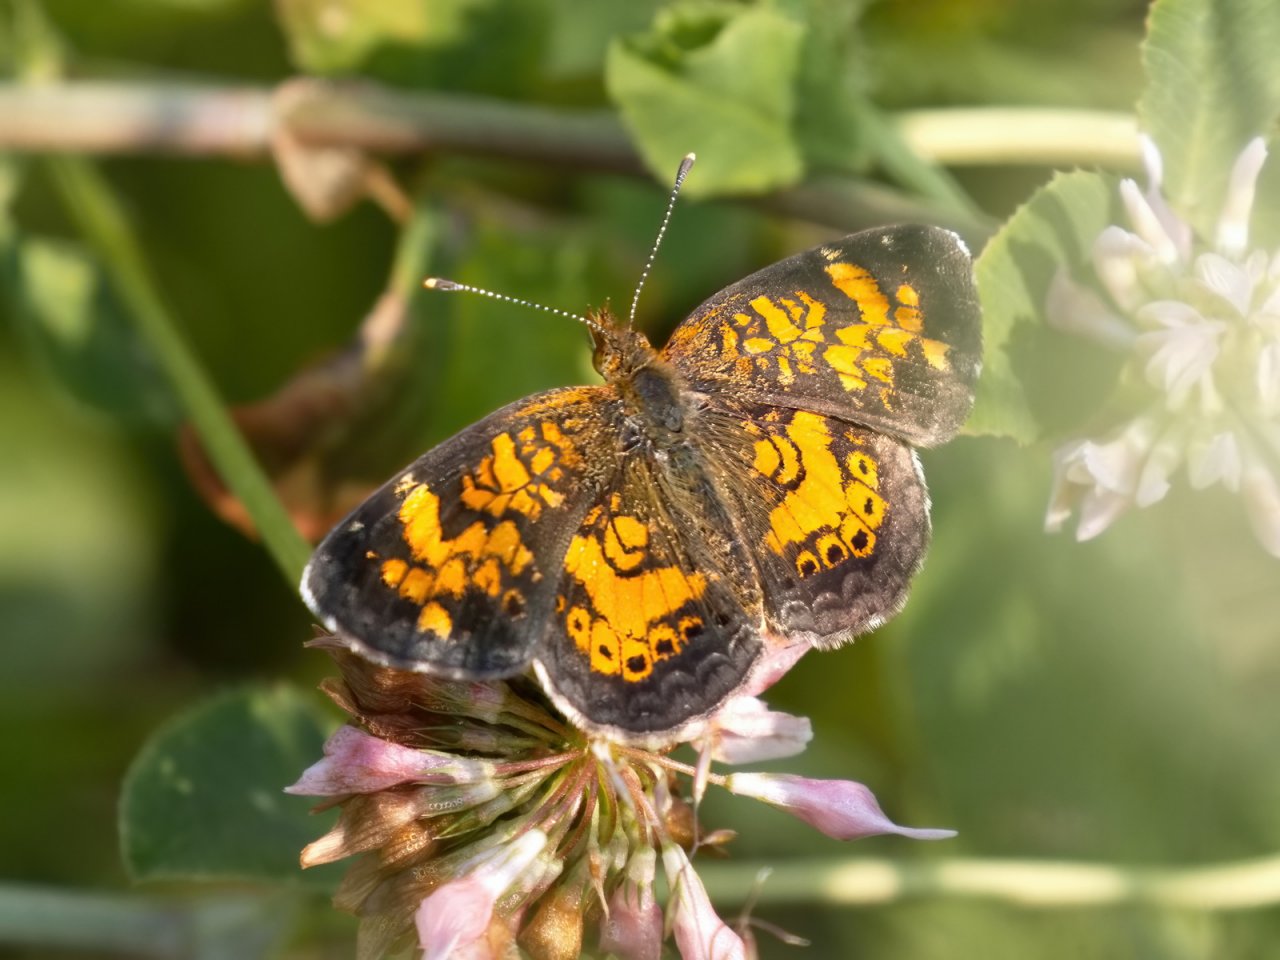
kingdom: Animalia
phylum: Arthropoda
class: Insecta
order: Lepidoptera
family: Nymphalidae
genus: Phyciodes
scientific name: Phyciodes tharos
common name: Northern Crescent
